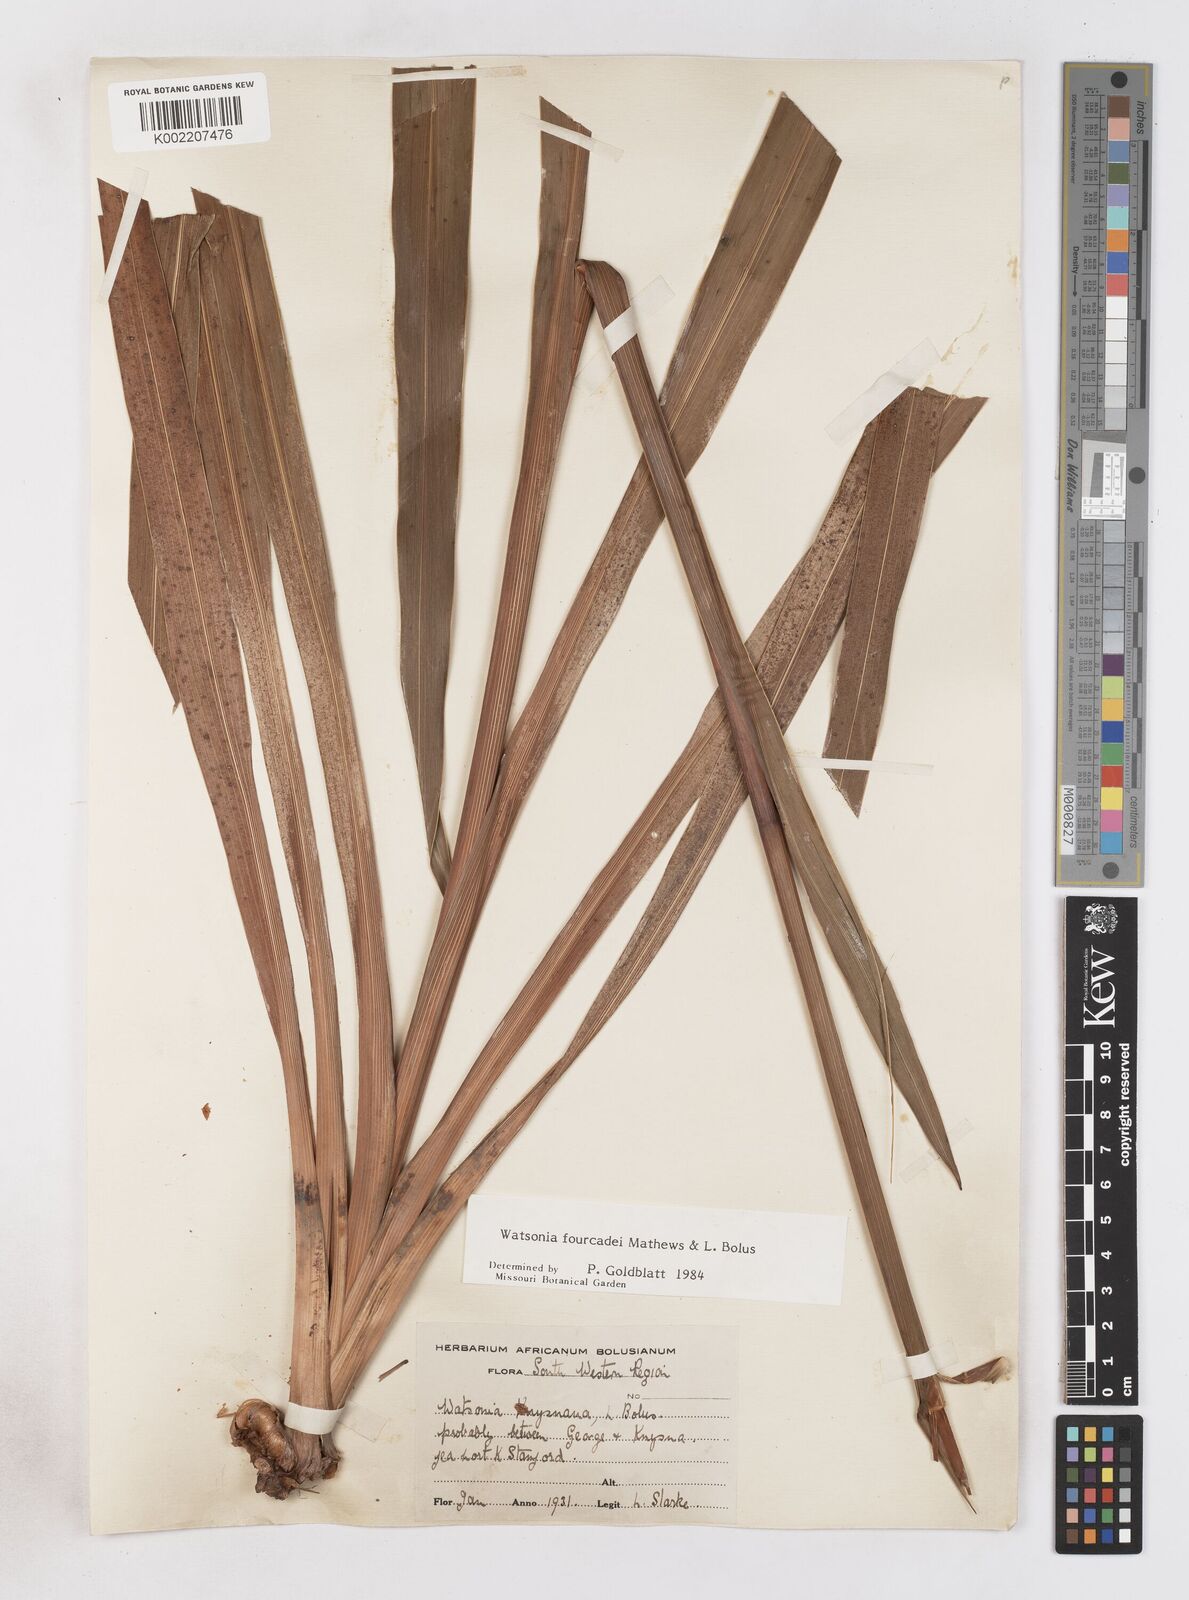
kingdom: Plantae
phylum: Tracheophyta
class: Liliopsida
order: Asparagales
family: Iridaceae
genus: Watsonia
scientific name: Watsonia fourcadei
